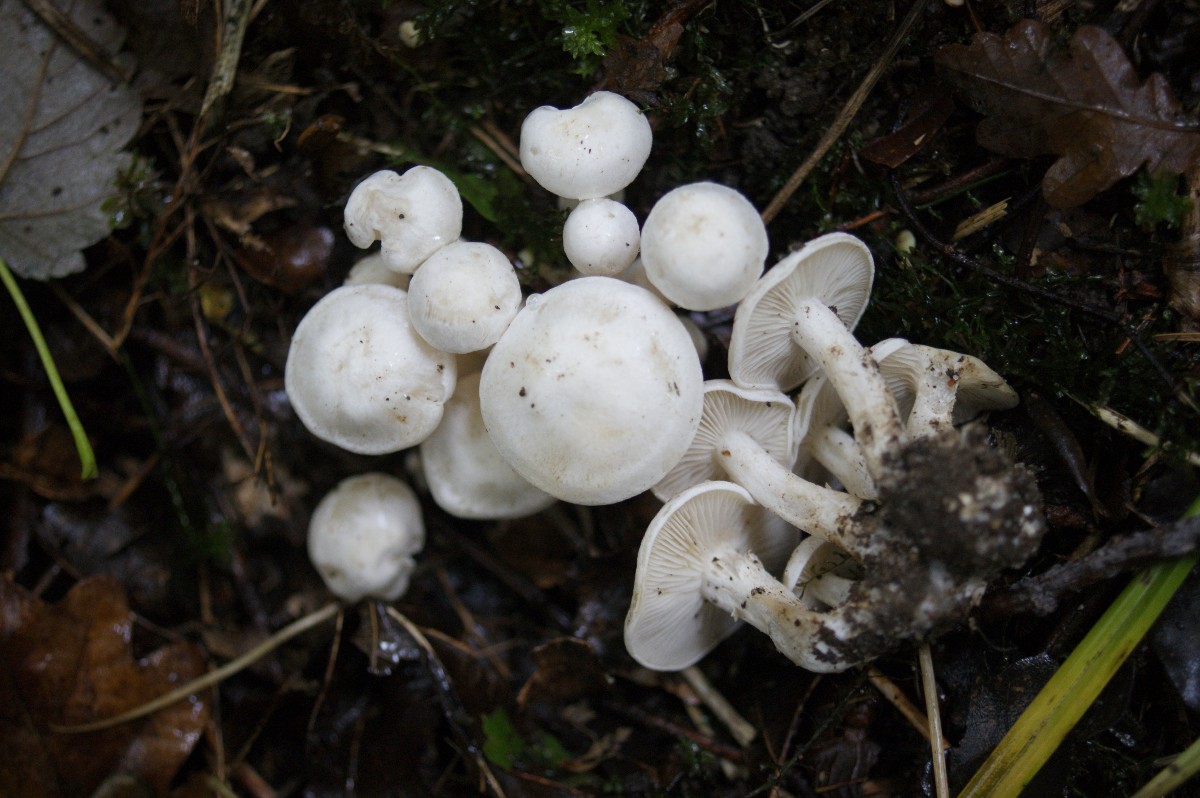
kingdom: Fungi
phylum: Basidiomycota
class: Agaricomycetes
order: Agaricales
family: Tricholomataceae
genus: Leucocybe
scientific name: Leucocybe connata
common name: knippe-tragthat
